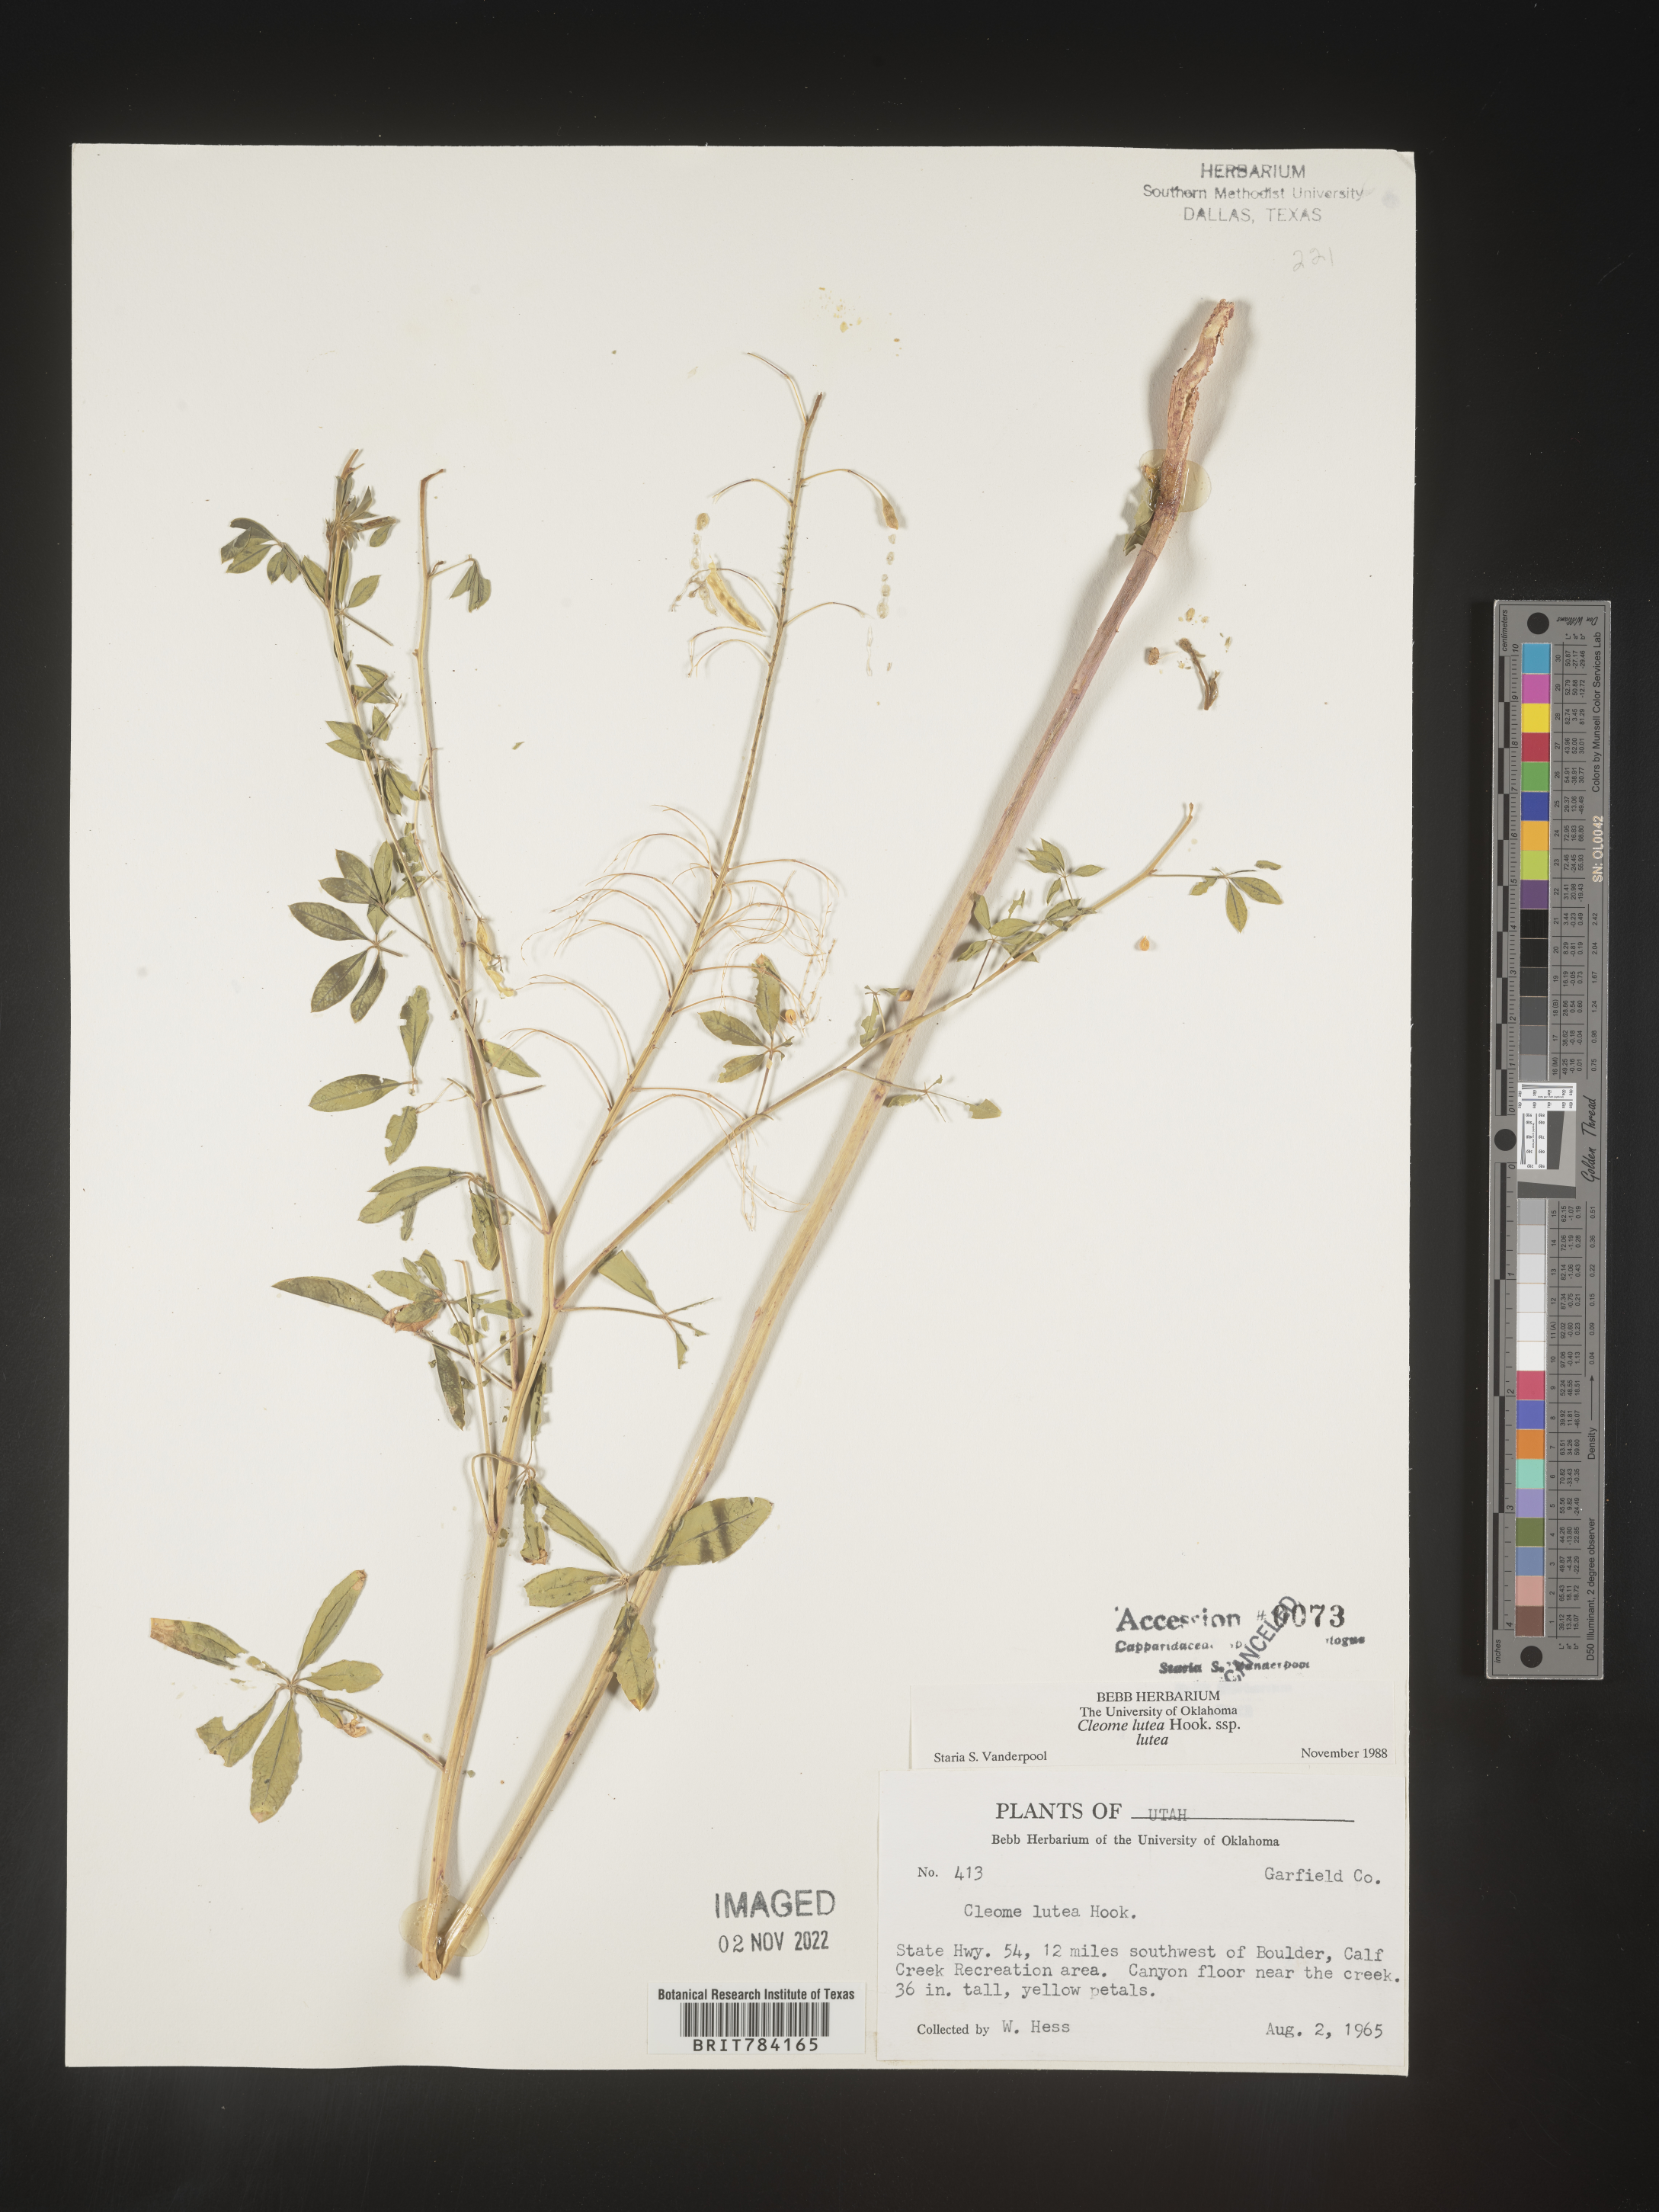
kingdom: Plantae
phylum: Tracheophyta
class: Magnoliopsida
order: Brassicales
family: Cleomaceae
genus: Cleomella
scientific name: Cleomella lutea
